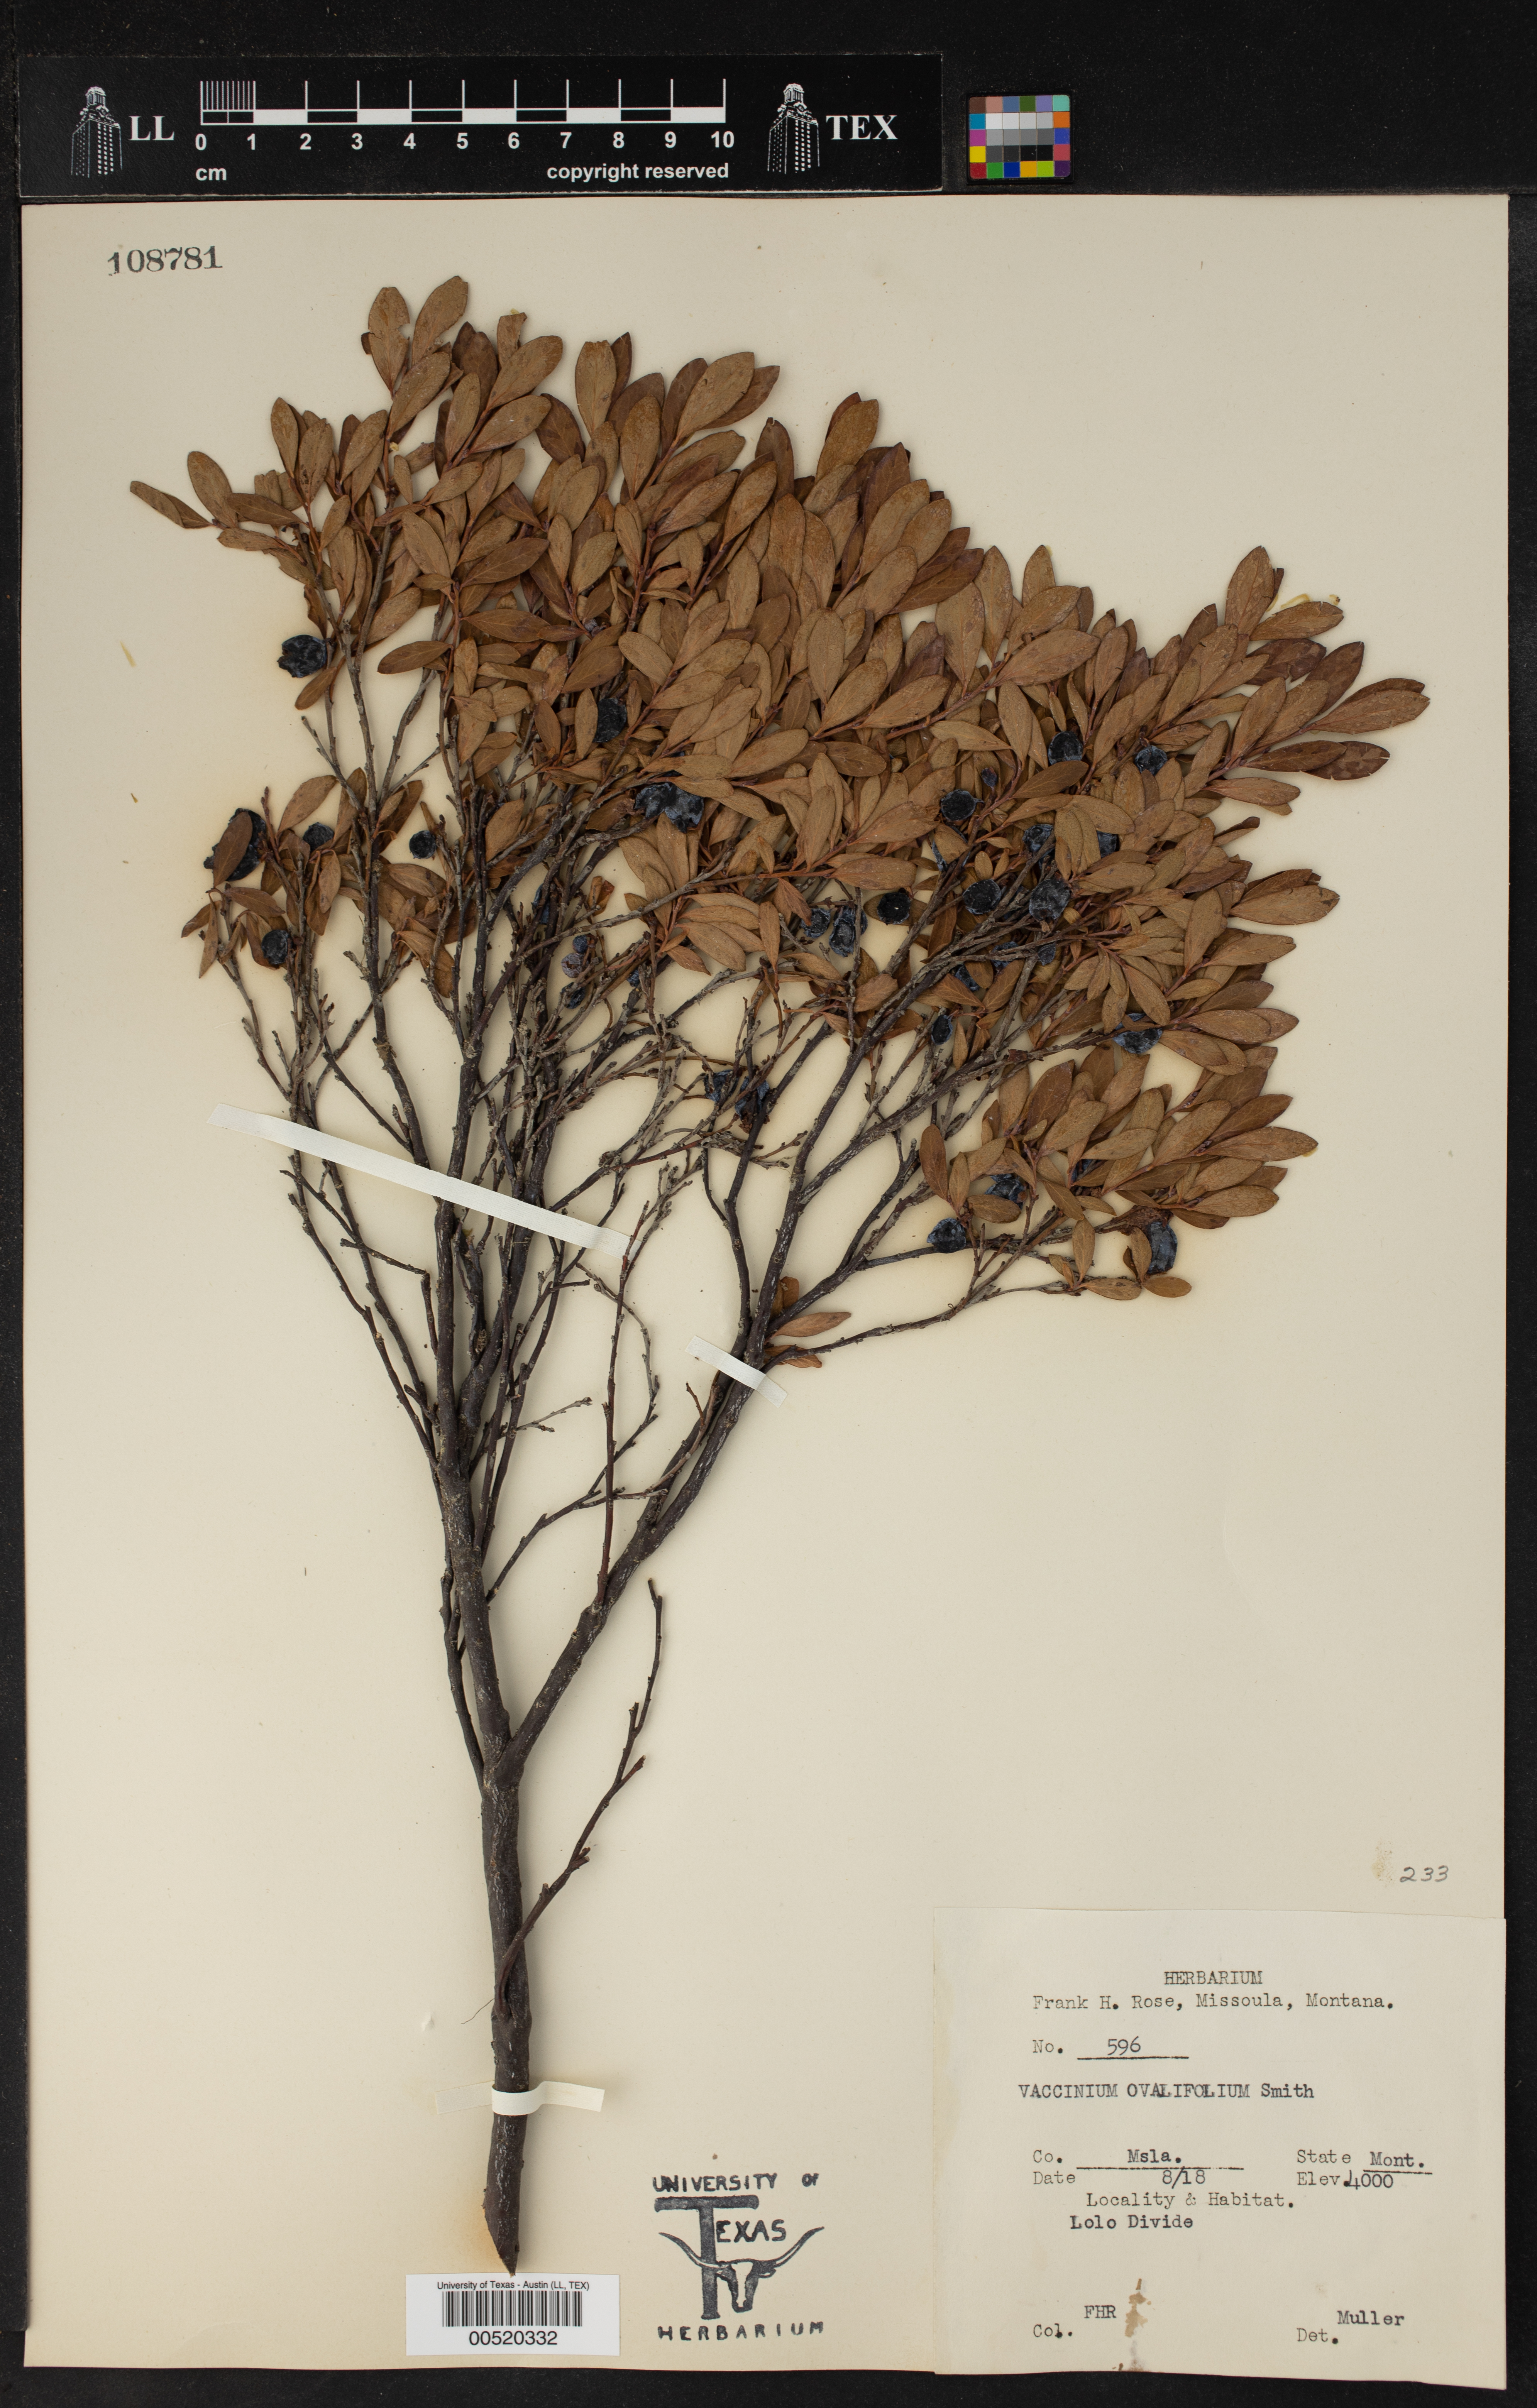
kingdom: Plantae
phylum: Tracheophyta
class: Magnoliopsida
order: Ericales
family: Ericaceae
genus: Vaccinium
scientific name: Vaccinium ovalifolium
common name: Early blueberry
